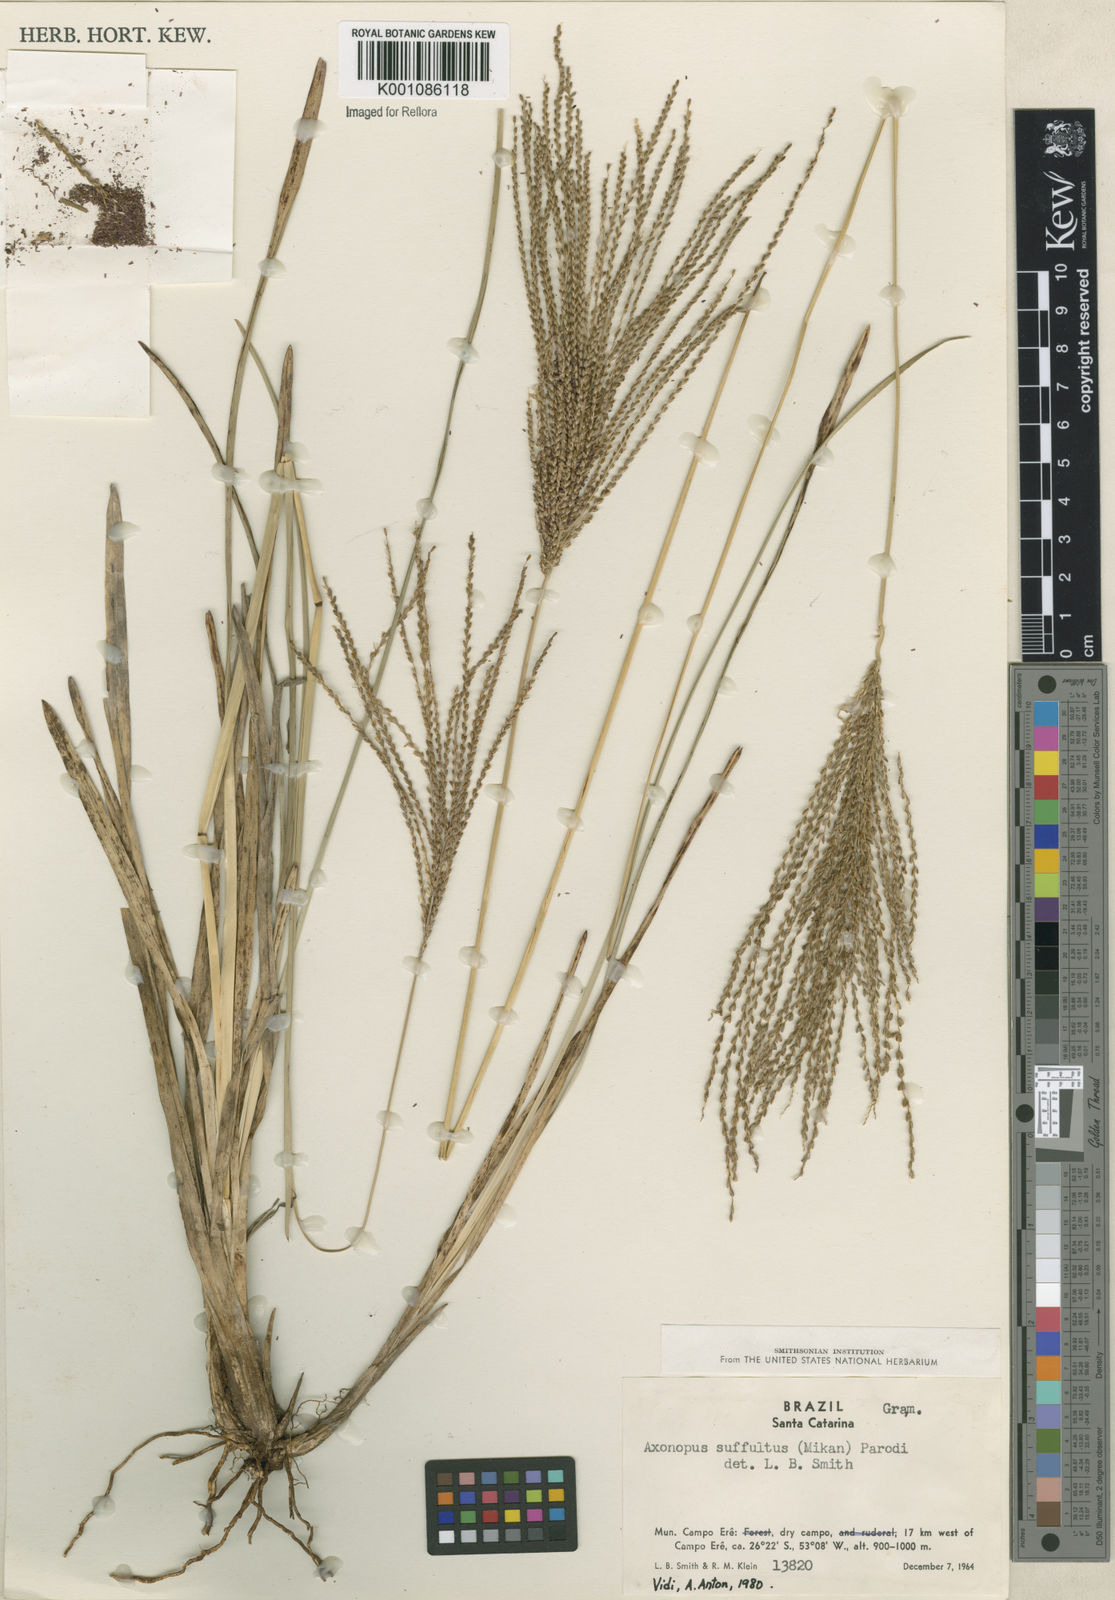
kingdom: Plantae
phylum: Tracheophyta
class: Liliopsida
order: Poales
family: Poaceae
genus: Axonopus
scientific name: Axonopus suffultus
